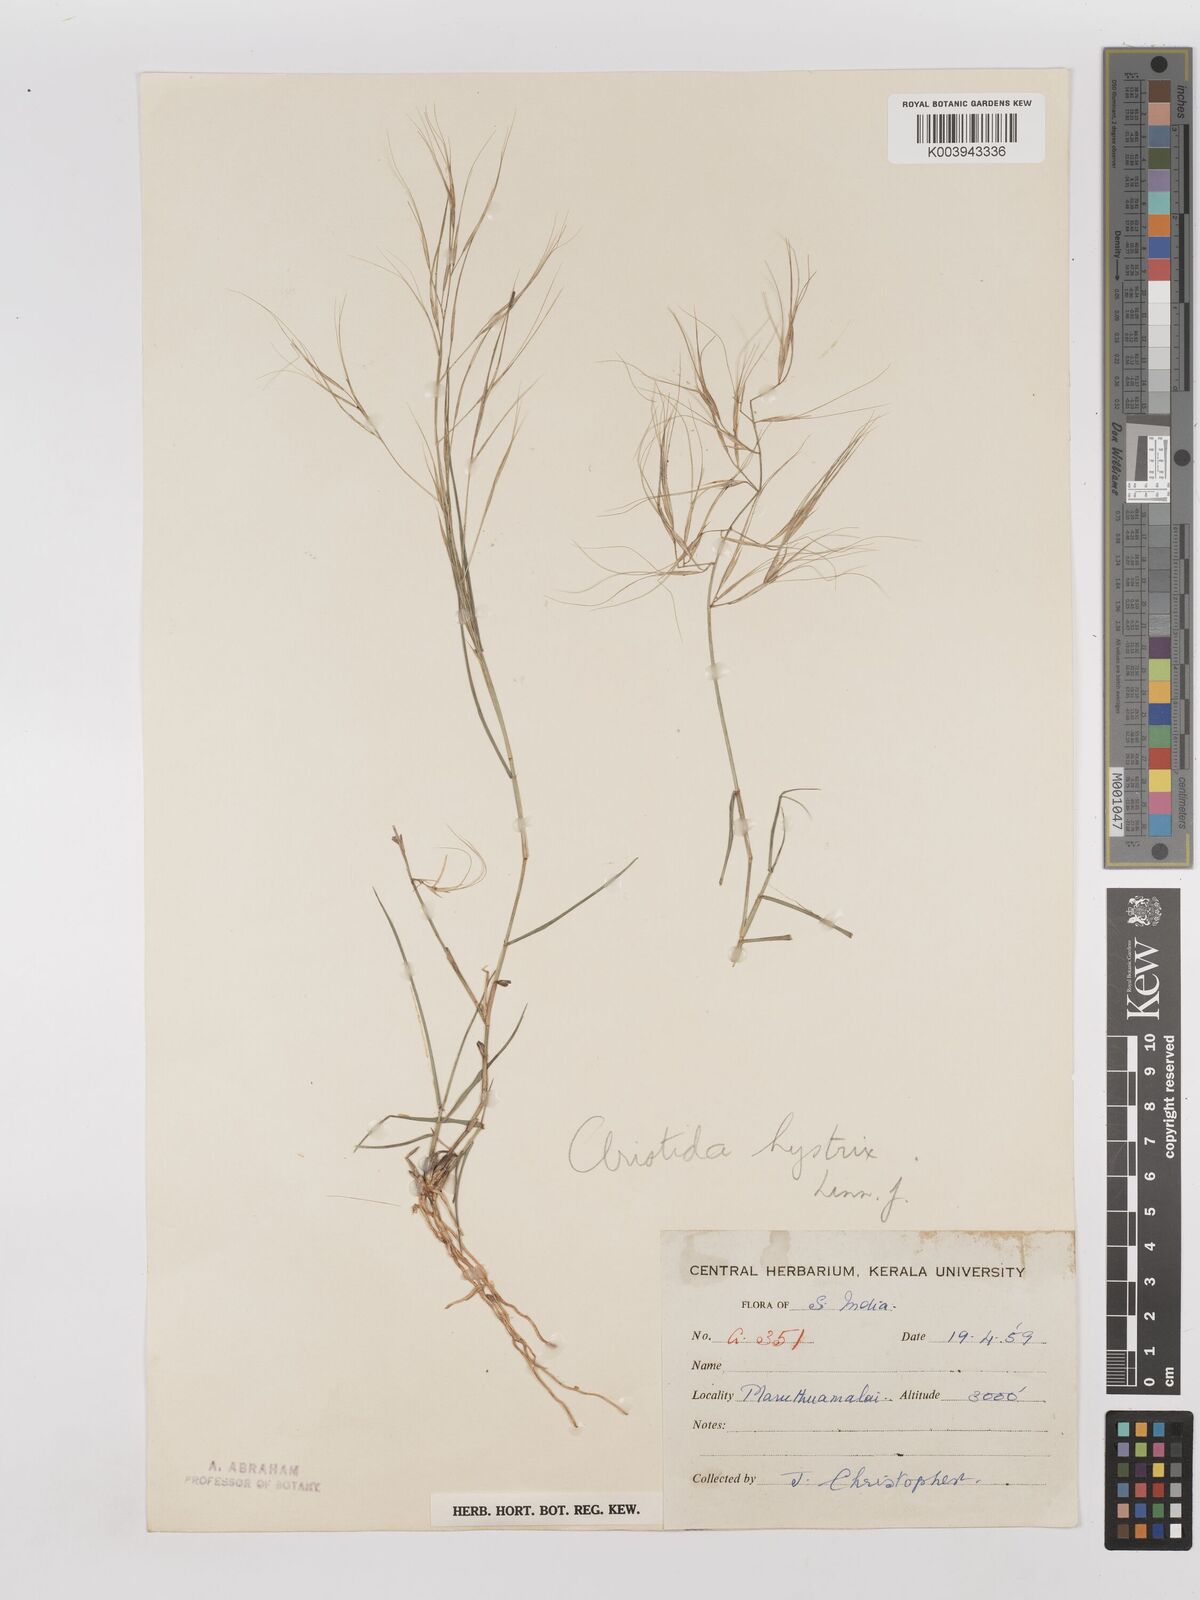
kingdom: Plantae
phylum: Tracheophyta
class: Liliopsida
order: Poales
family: Poaceae
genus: Aristida
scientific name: Aristida hystrix
